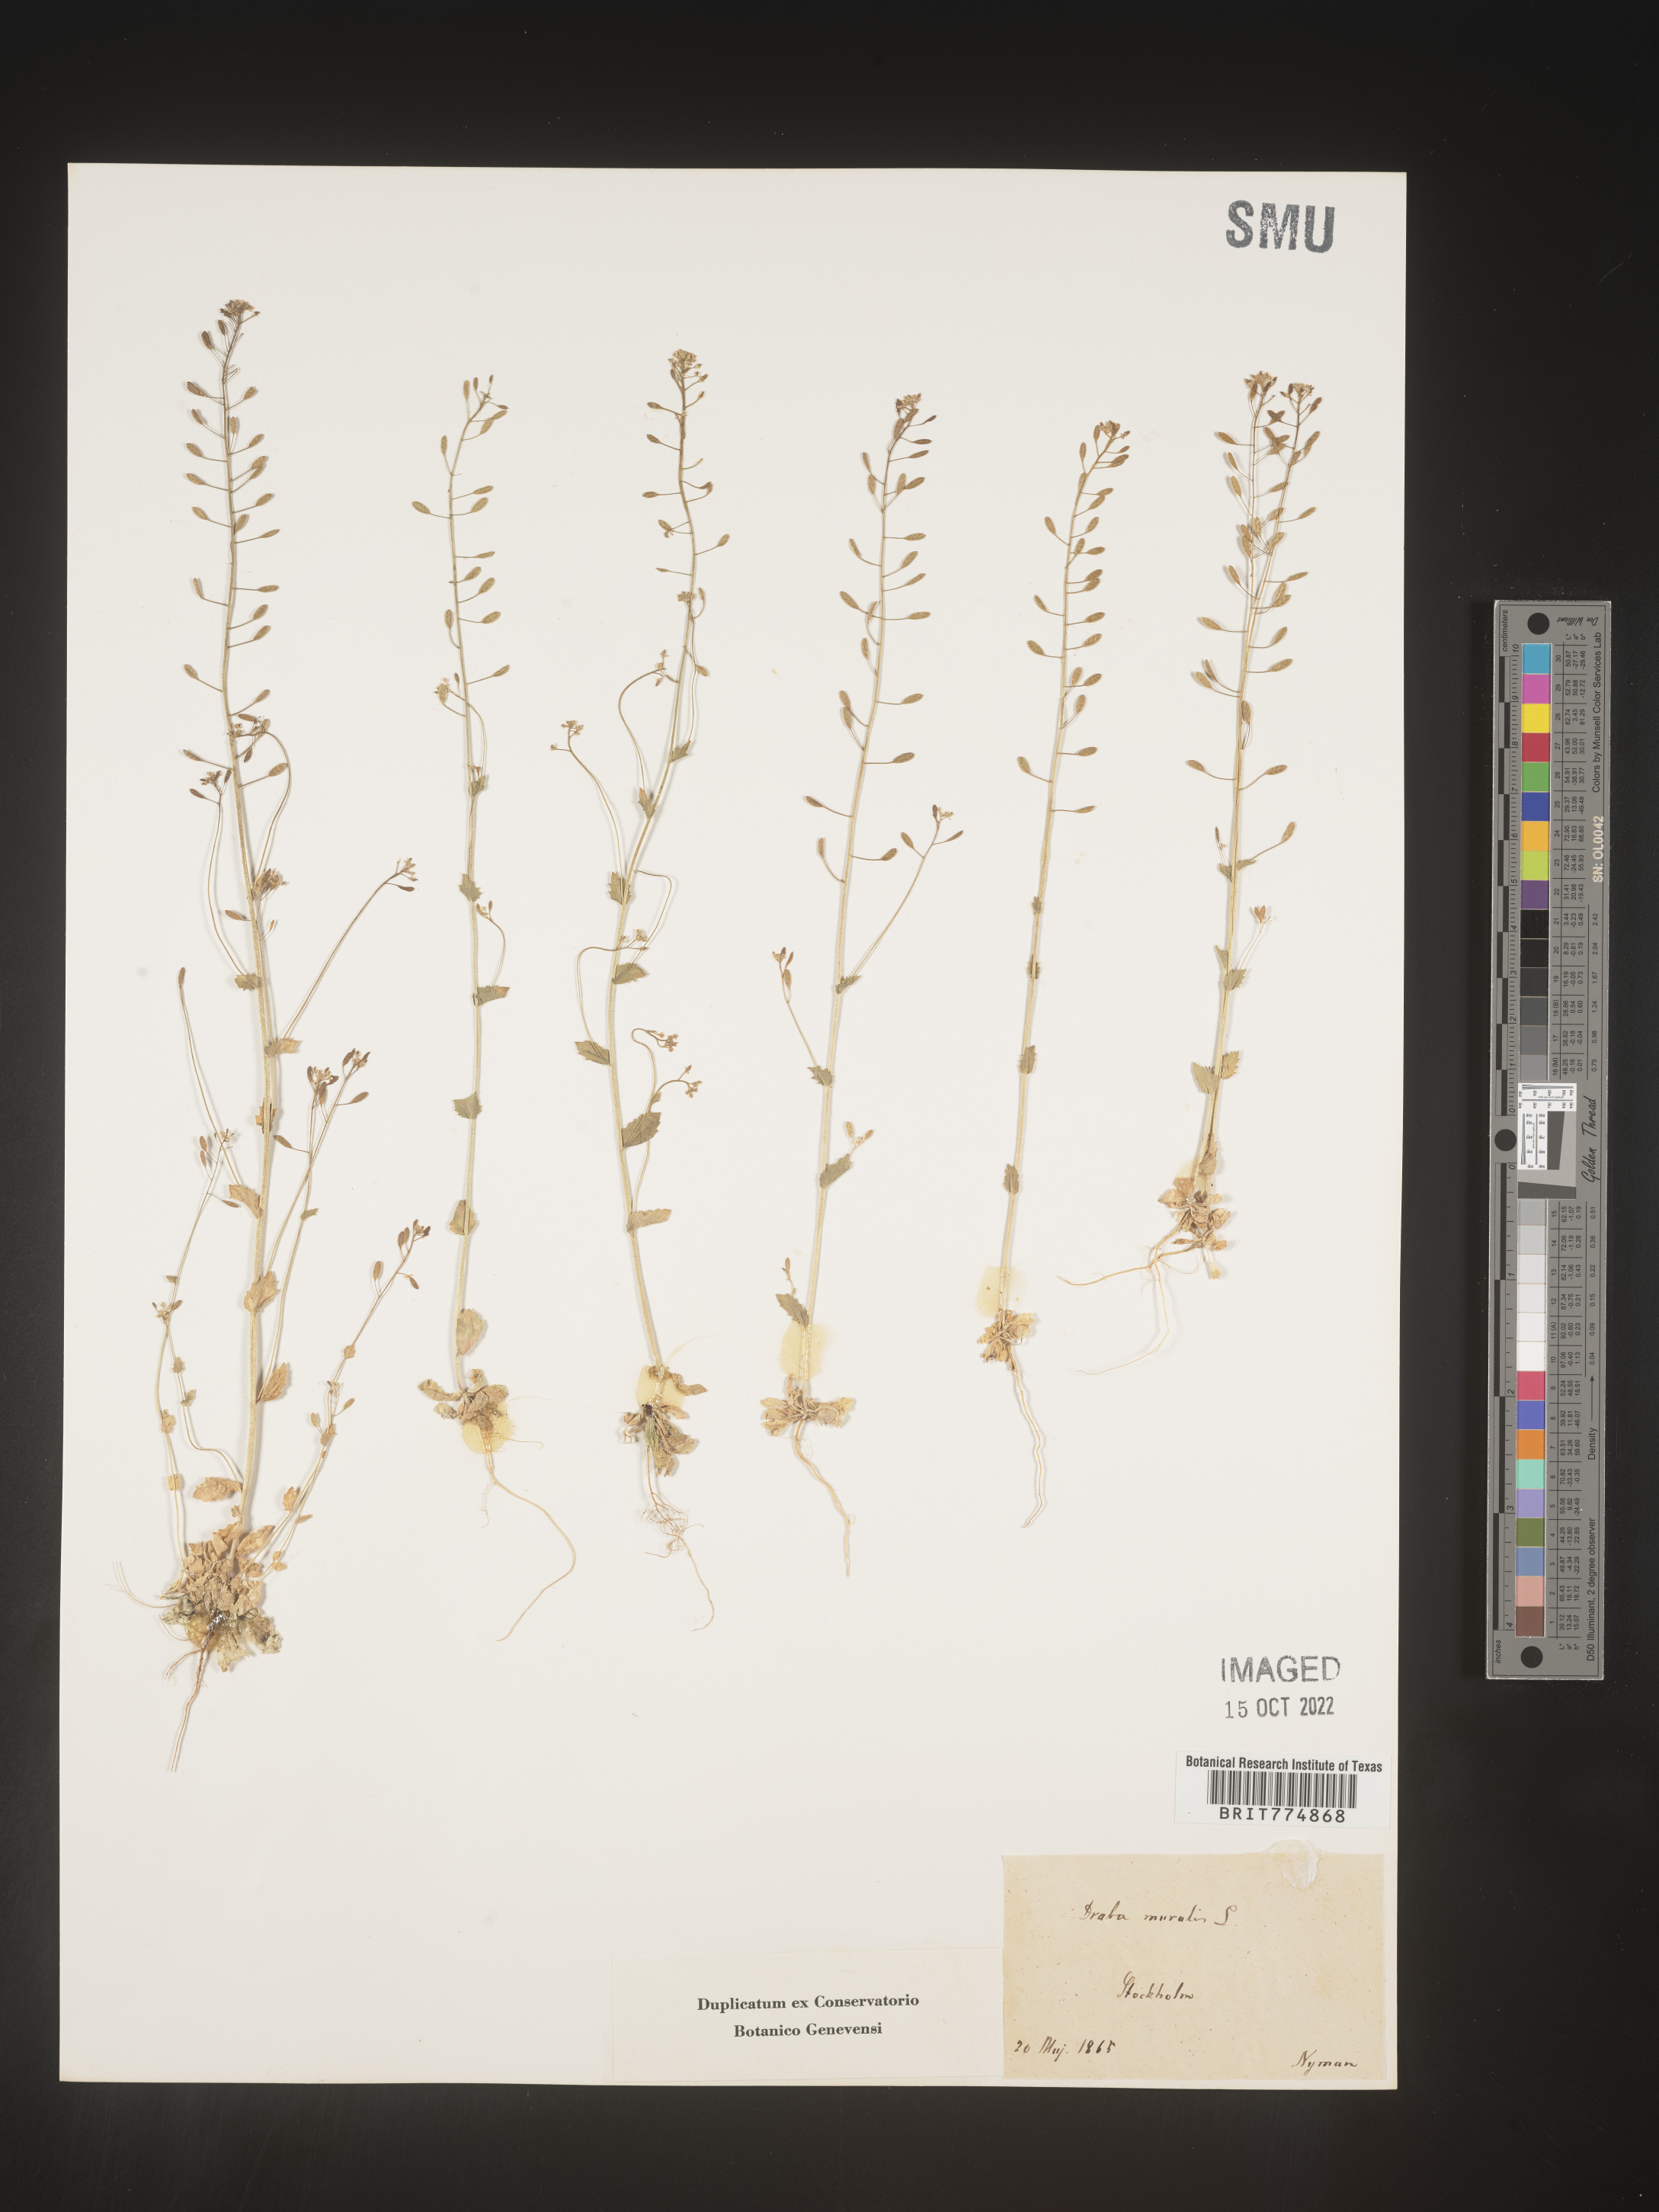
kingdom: Plantae
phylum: Tracheophyta
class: Magnoliopsida
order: Brassicales
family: Brassicaceae
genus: Draba
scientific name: Draba
